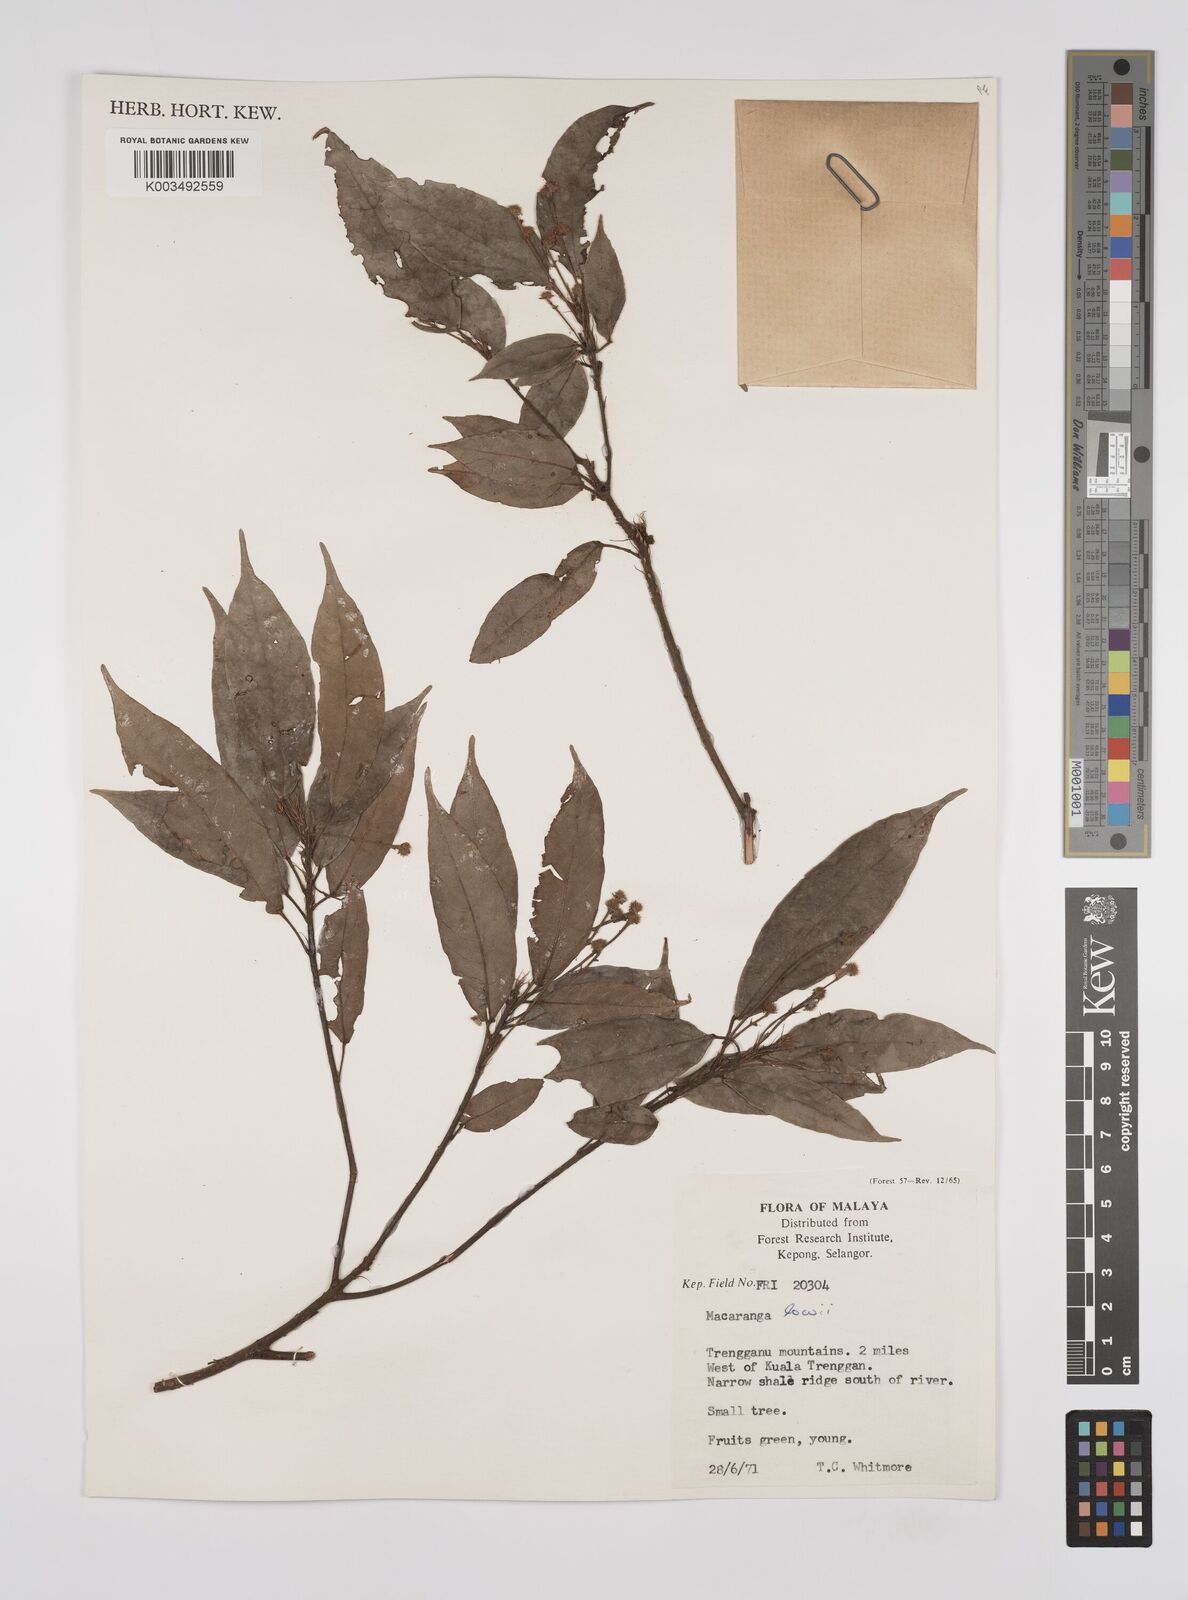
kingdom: Plantae
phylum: Tracheophyta
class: Magnoliopsida
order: Malpighiales
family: Euphorbiaceae
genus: Macaranga
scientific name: Macaranga lowii
